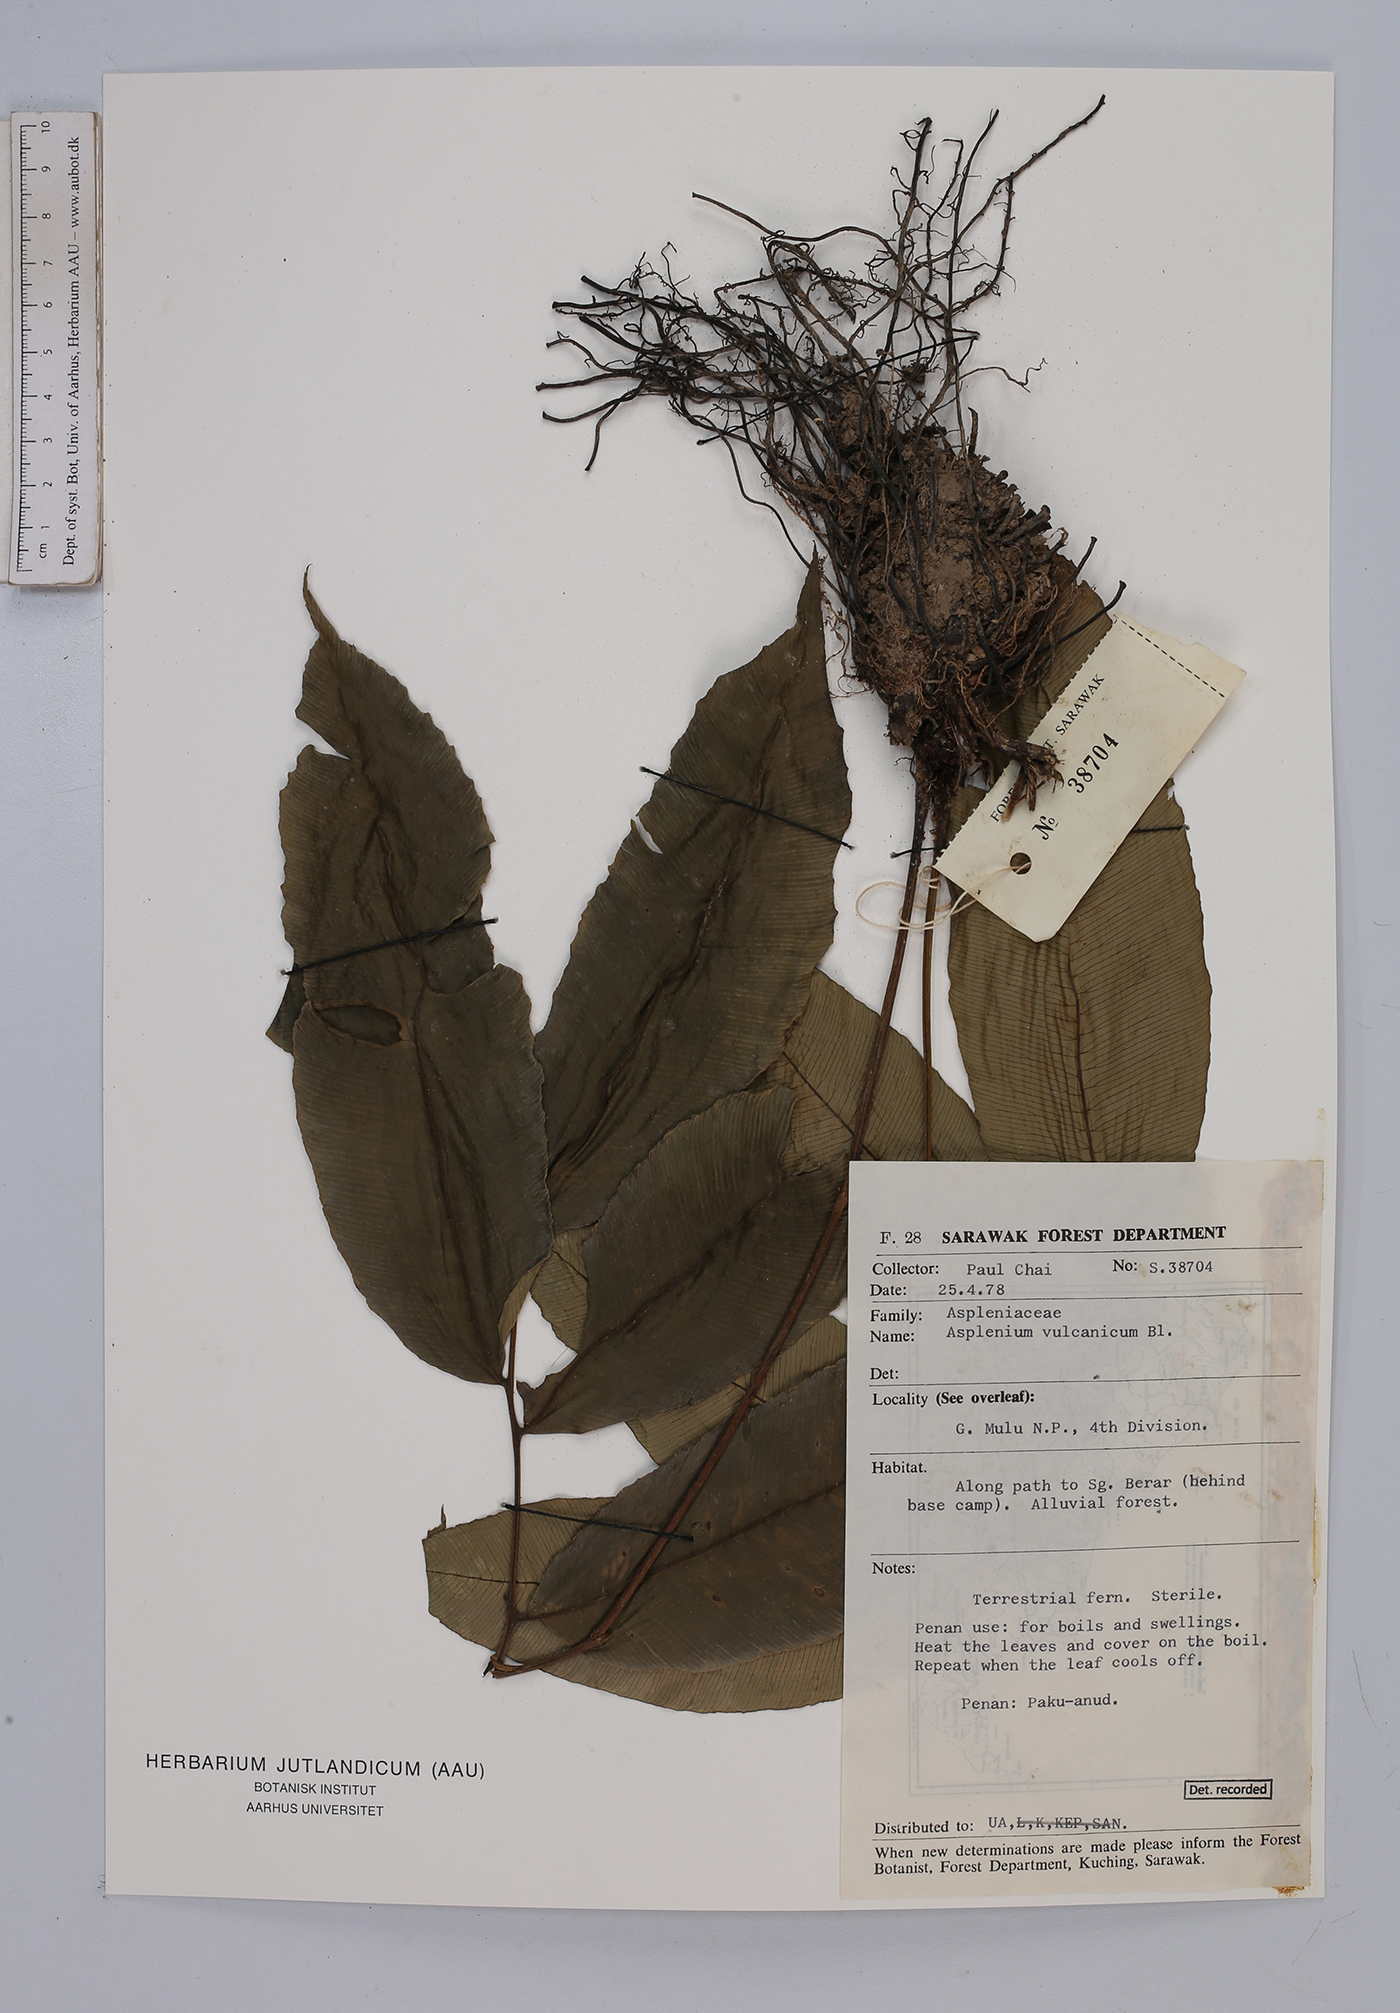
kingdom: Plantae
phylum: Tracheophyta
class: Polypodiopsida
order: Polypodiales
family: Aspleniaceae
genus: Asplenium
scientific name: Asplenium vulcanicum
